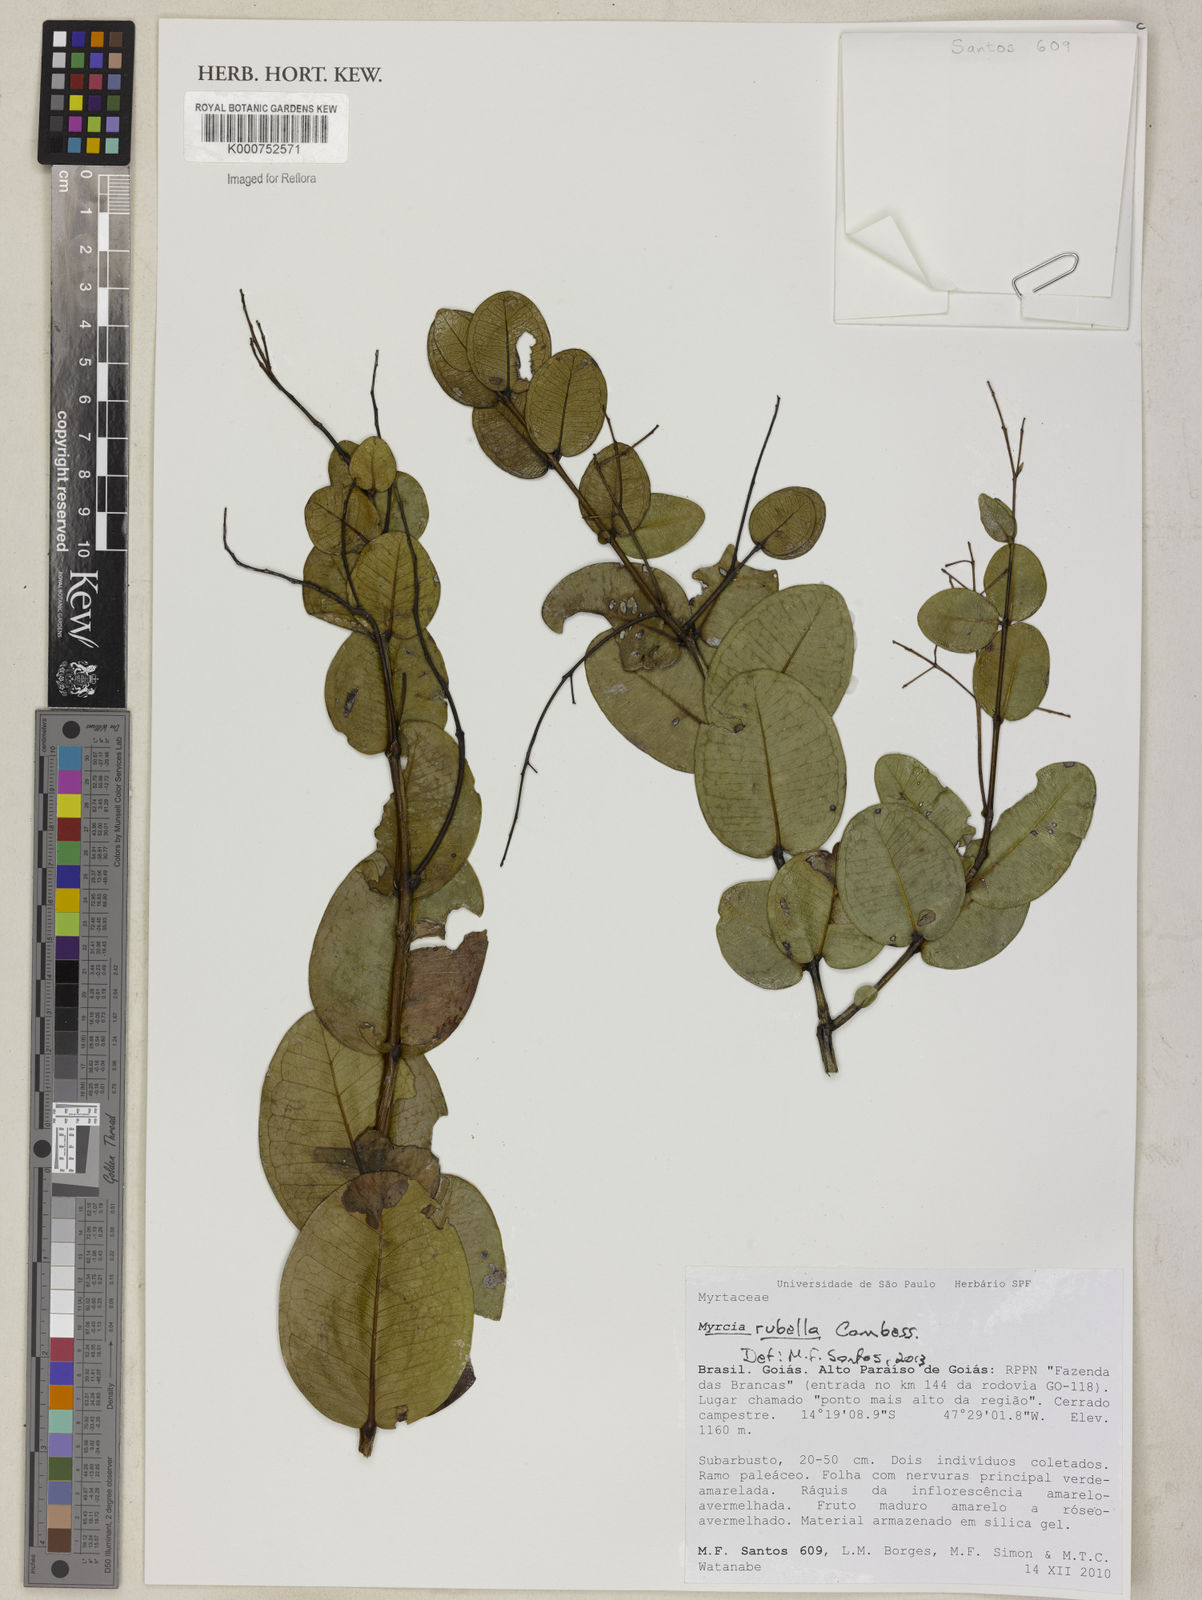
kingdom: Plantae
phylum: Tracheophyta
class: Magnoliopsida
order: Myrtales
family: Myrtaceae
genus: Myrcia
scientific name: Myrcia guianensis
